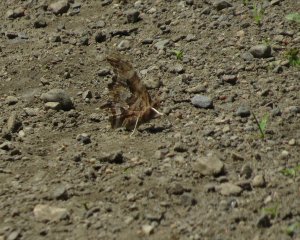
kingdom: Animalia
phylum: Arthropoda
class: Insecta
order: Lepidoptera
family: Nymphalidae
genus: Polygonia
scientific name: Polygonia comma
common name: Eastern Comma
